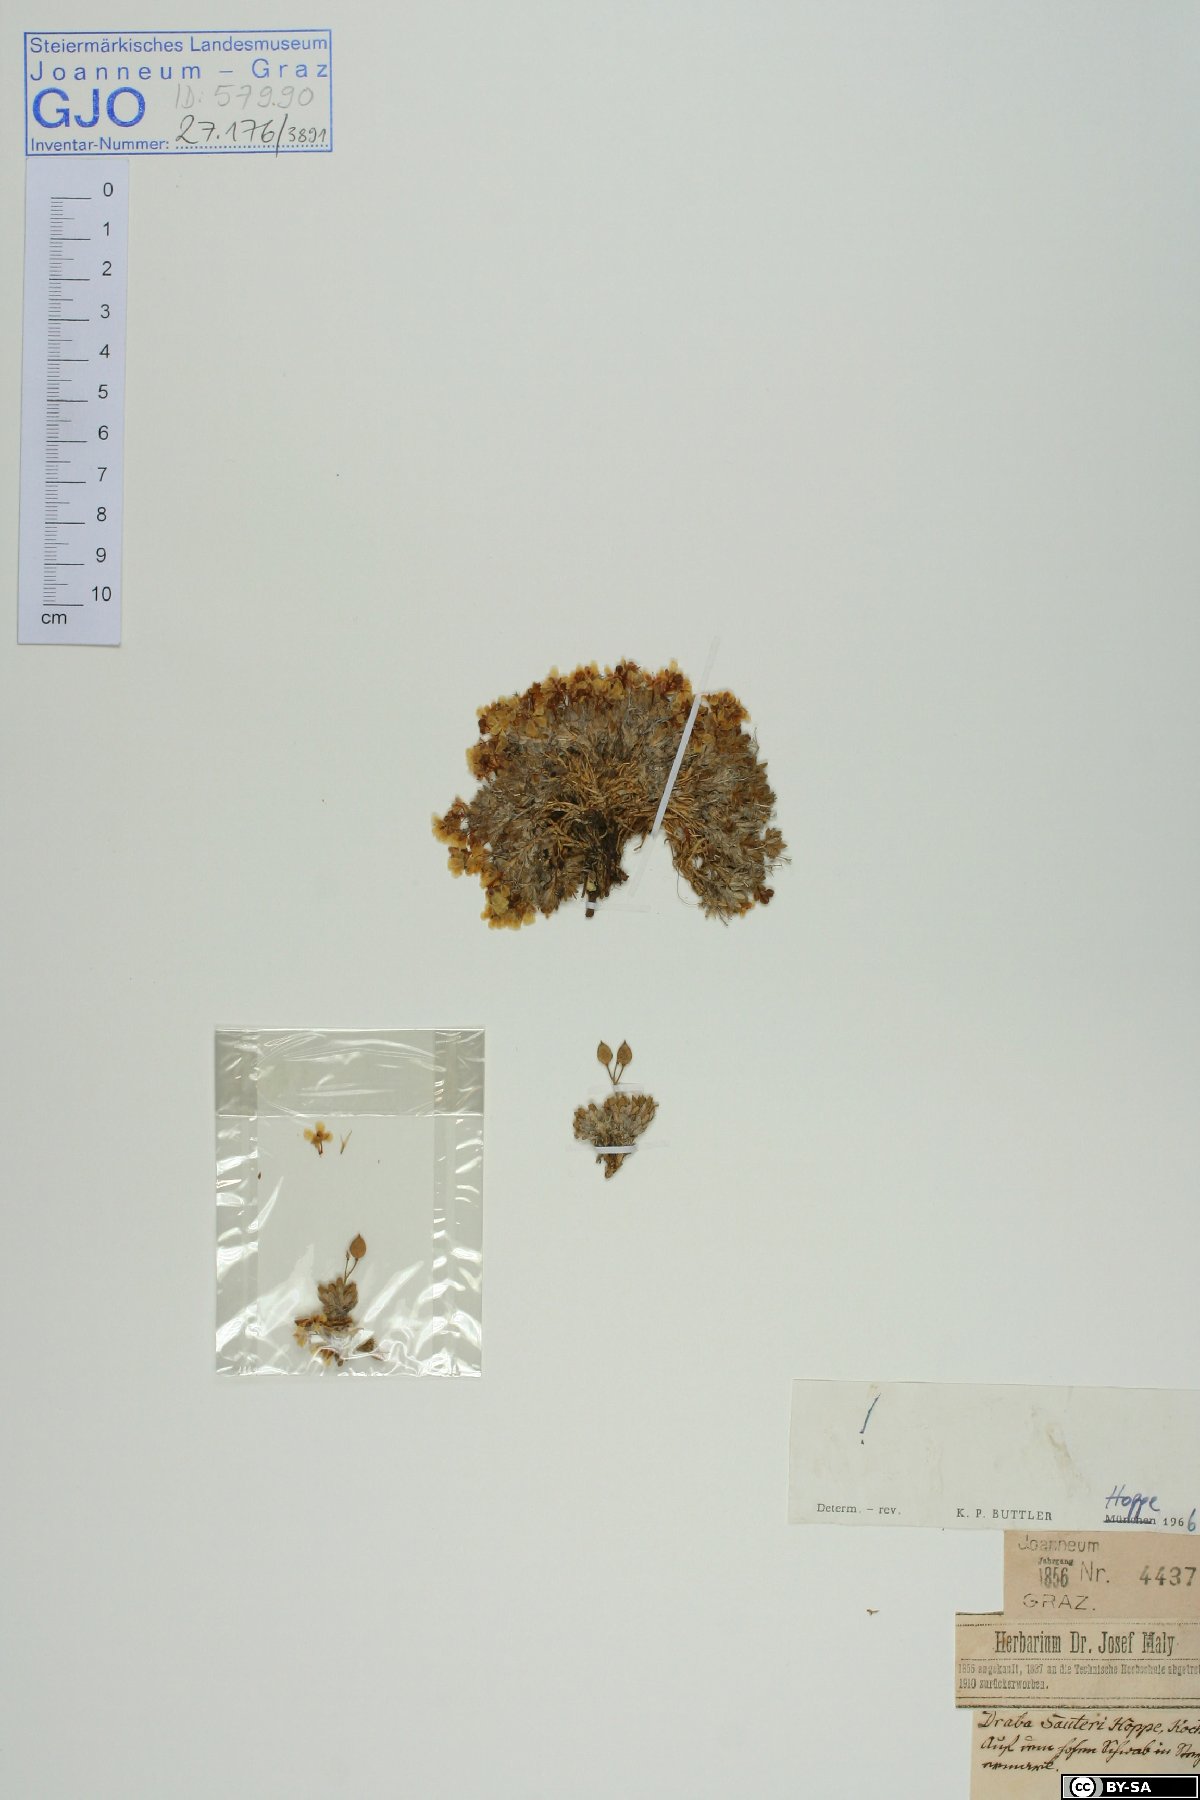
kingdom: Plantae
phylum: Tracheophyta
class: Magnoliopsida
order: Brassicales
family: Brassicaceae
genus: Draba
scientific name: Draba sauteri
